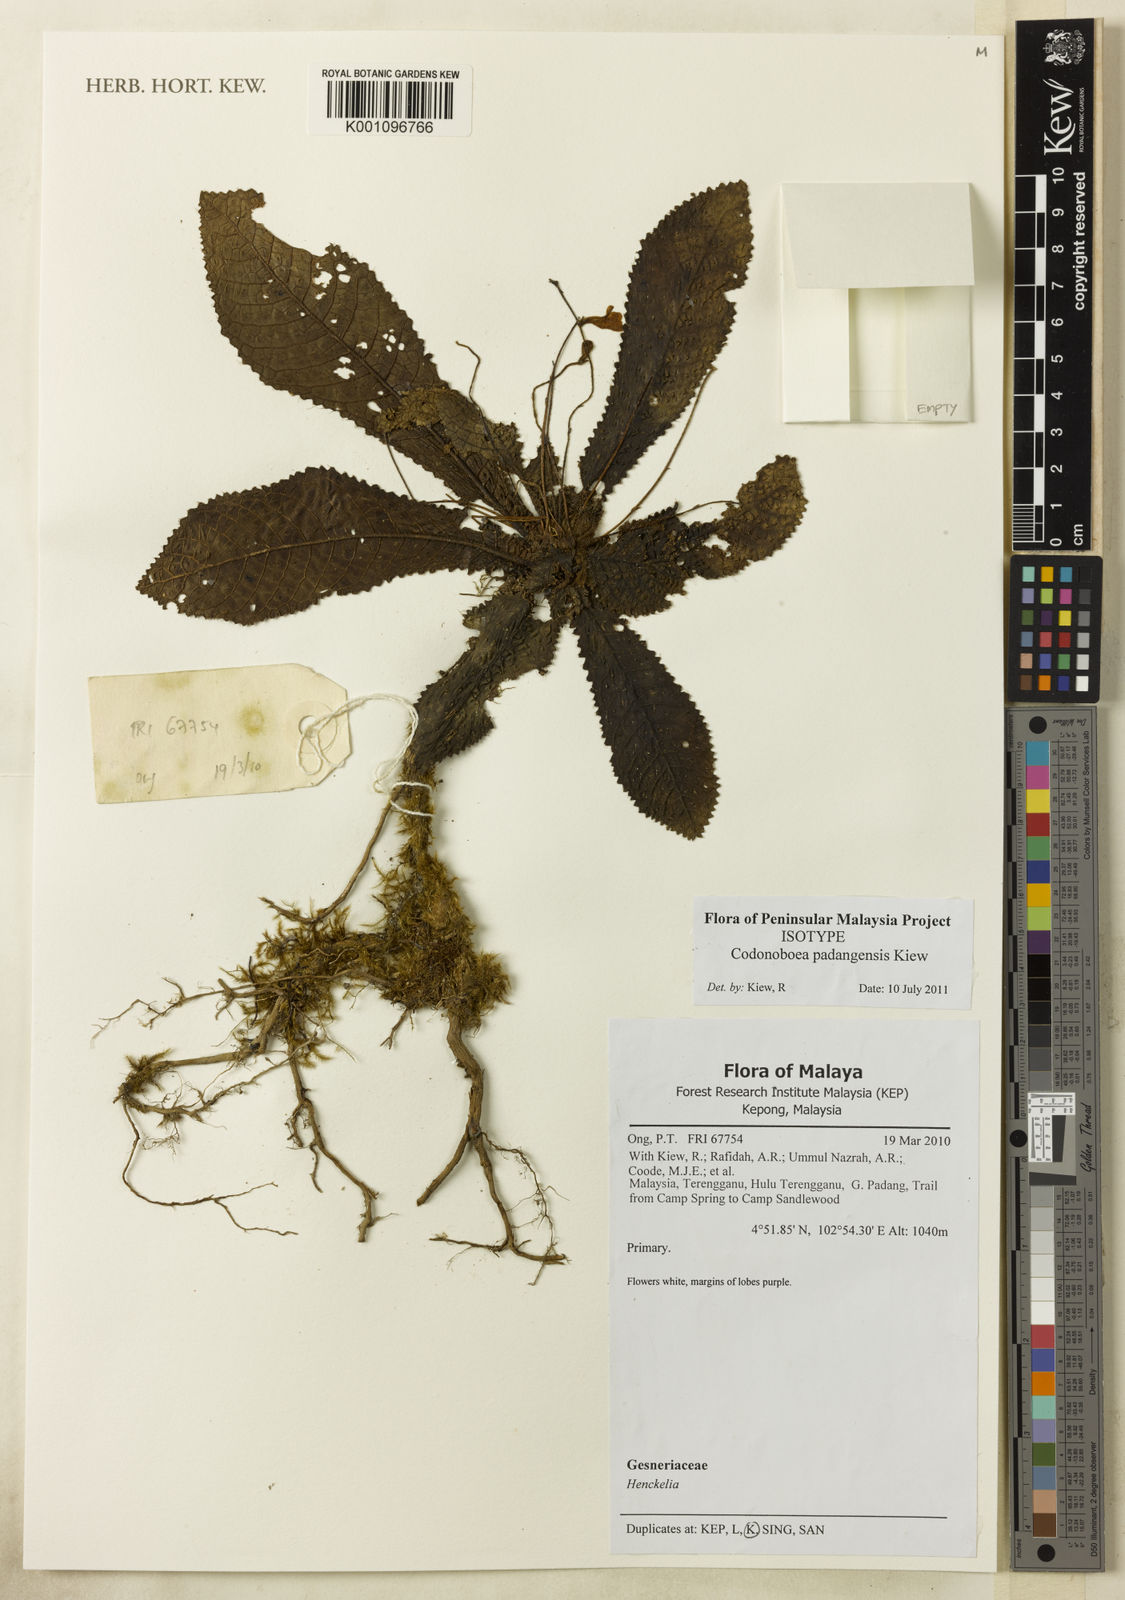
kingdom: Plantae
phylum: Tracheophyta
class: Magnoliopsida
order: Lamiales
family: Gesneriaceae
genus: Codonoboea
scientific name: Codonoboea padangensis
